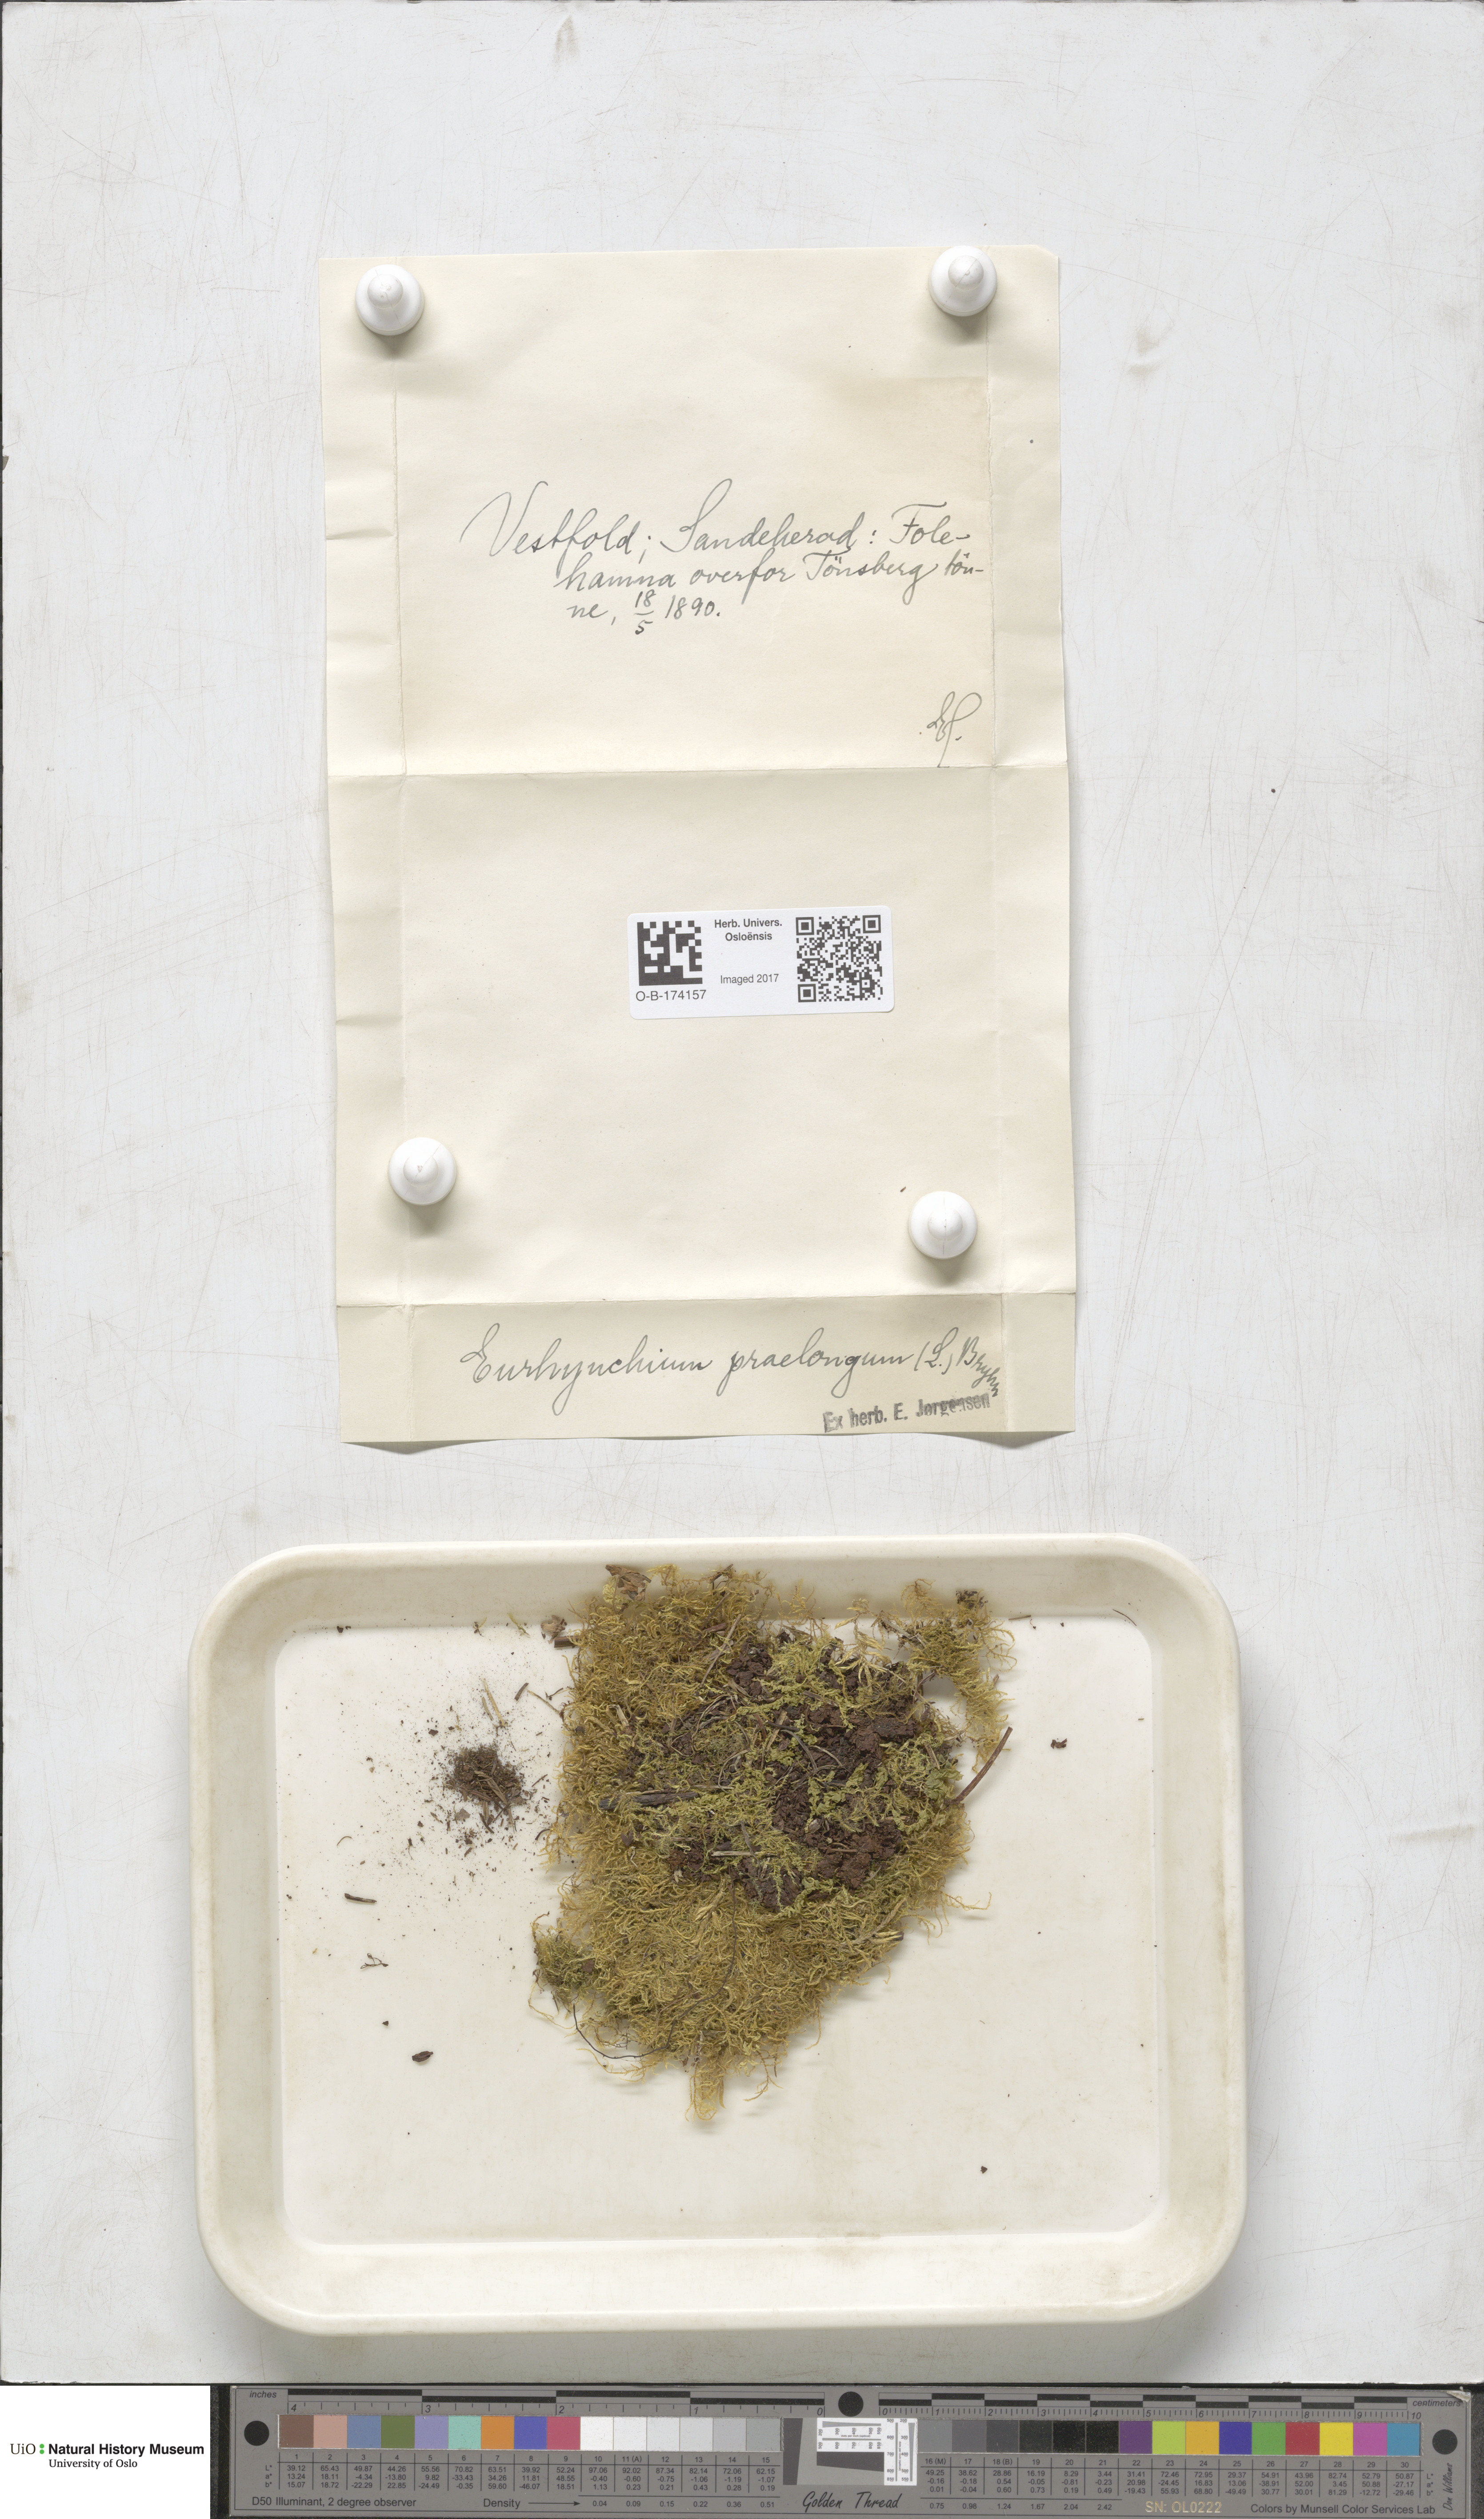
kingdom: Plantae
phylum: Bryophyta
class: Bryopsida
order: Hypnales
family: Brachytheciaceae
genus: Kindbergia
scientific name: Kindbergia praelonga
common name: Slender beaked moss
